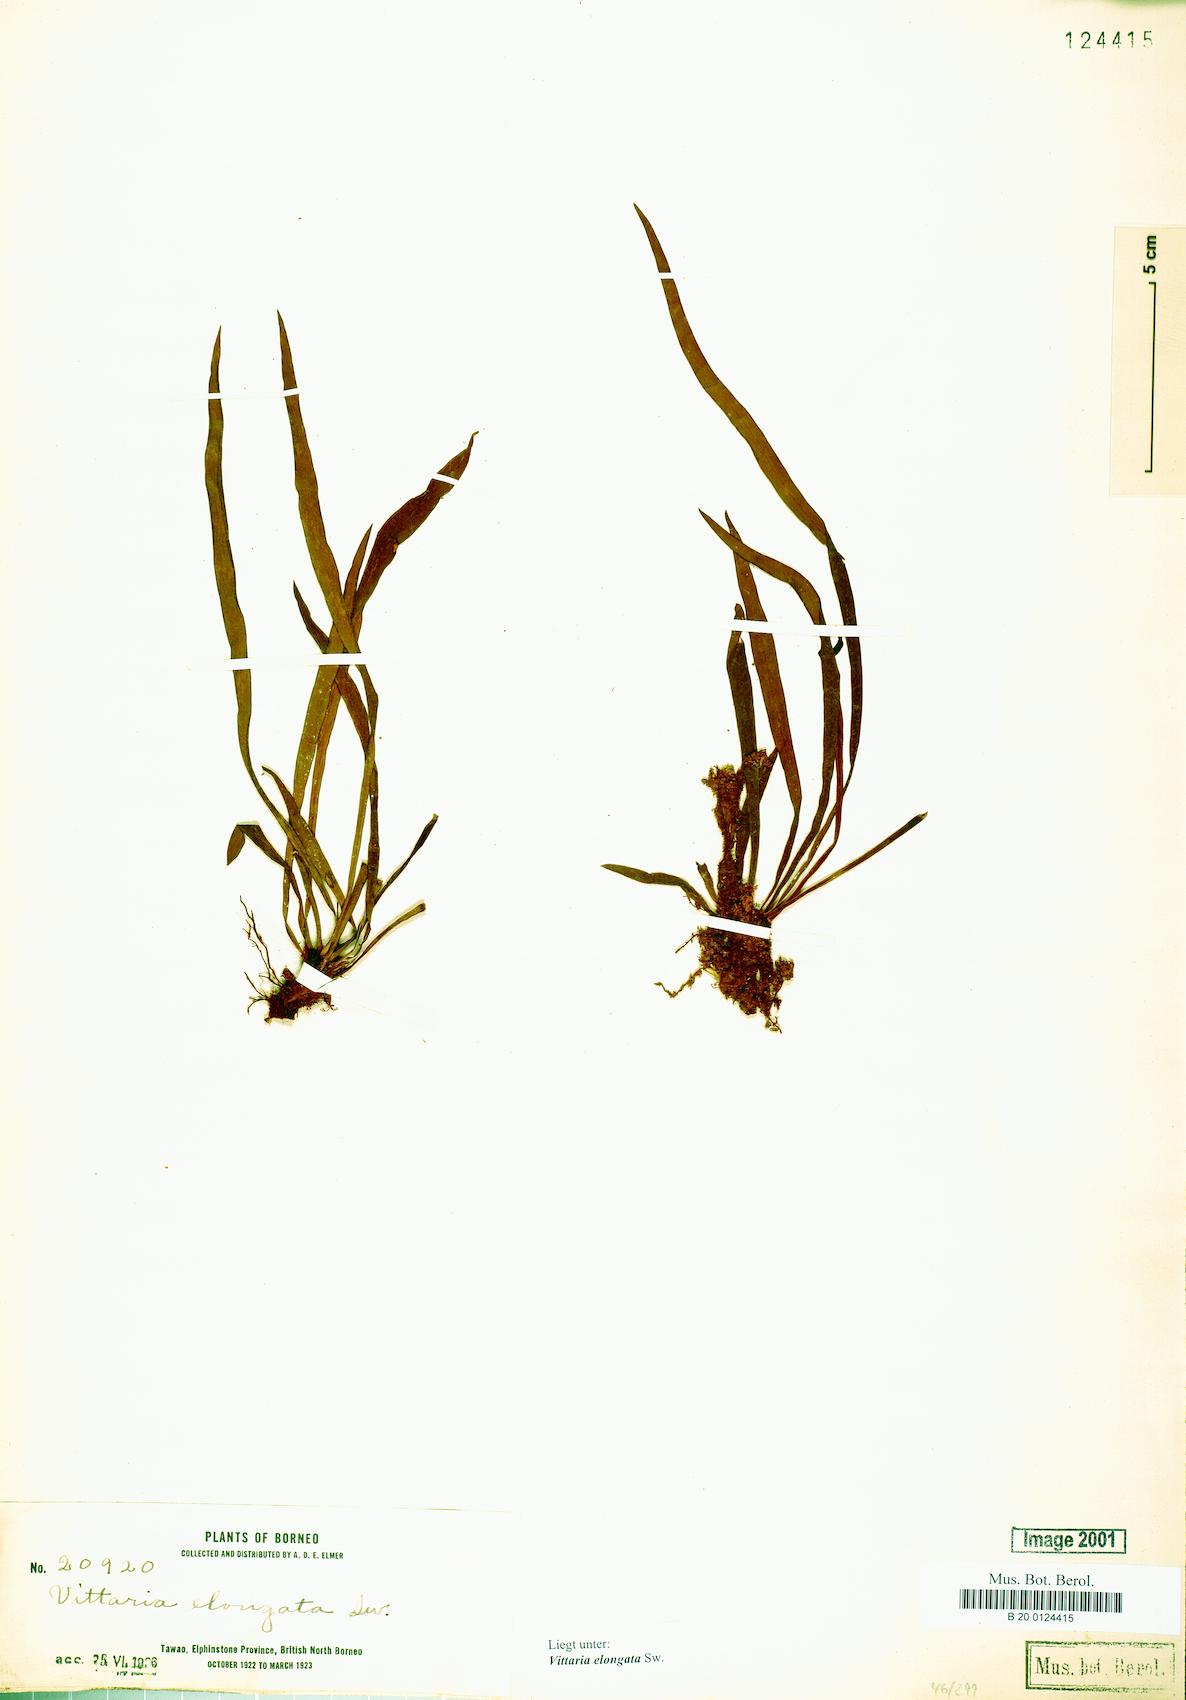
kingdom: Plantae
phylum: Tracheophyta
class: Polypodiopsida
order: Polypodiales
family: Pteridaceae
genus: Haplopteris
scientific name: Haplopteris elongata
